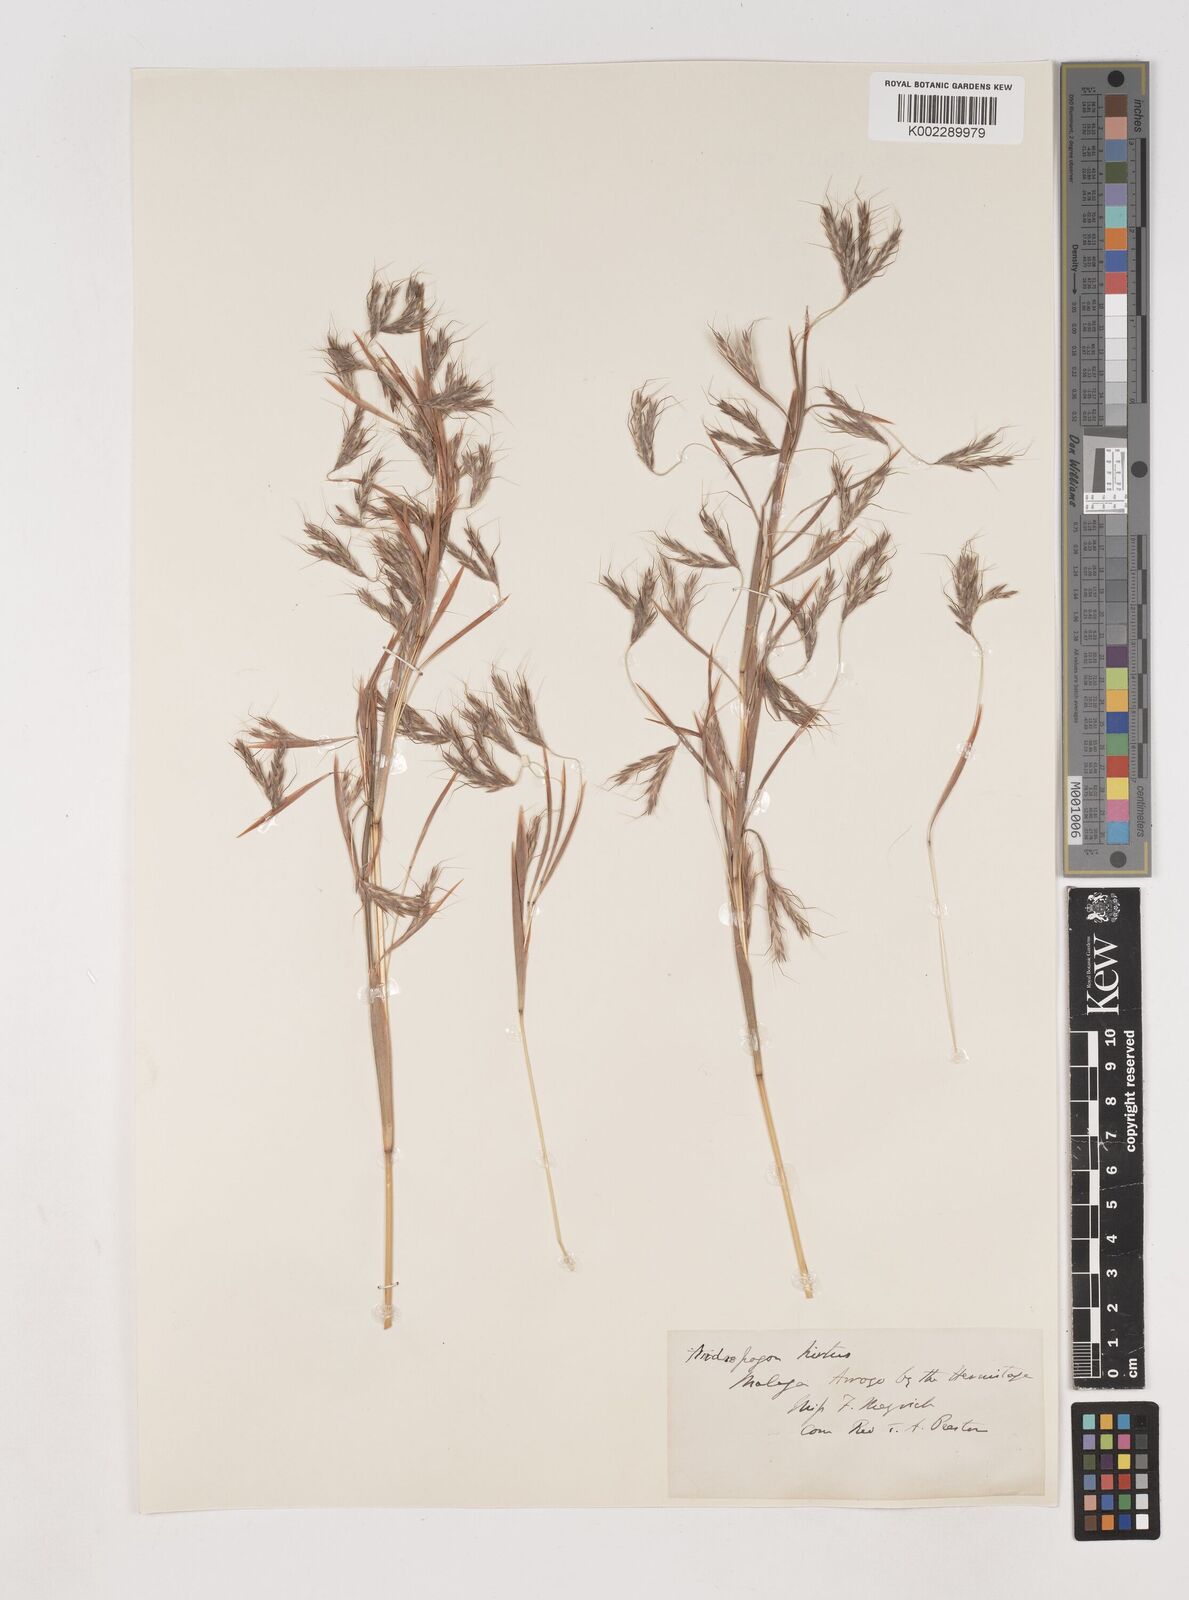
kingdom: Plantae
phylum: Tracheophyta
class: Liliopsida
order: Poales
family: Poaceae
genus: Hyparrhenia
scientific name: Hyparrhenia hirta
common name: Thatching grass
